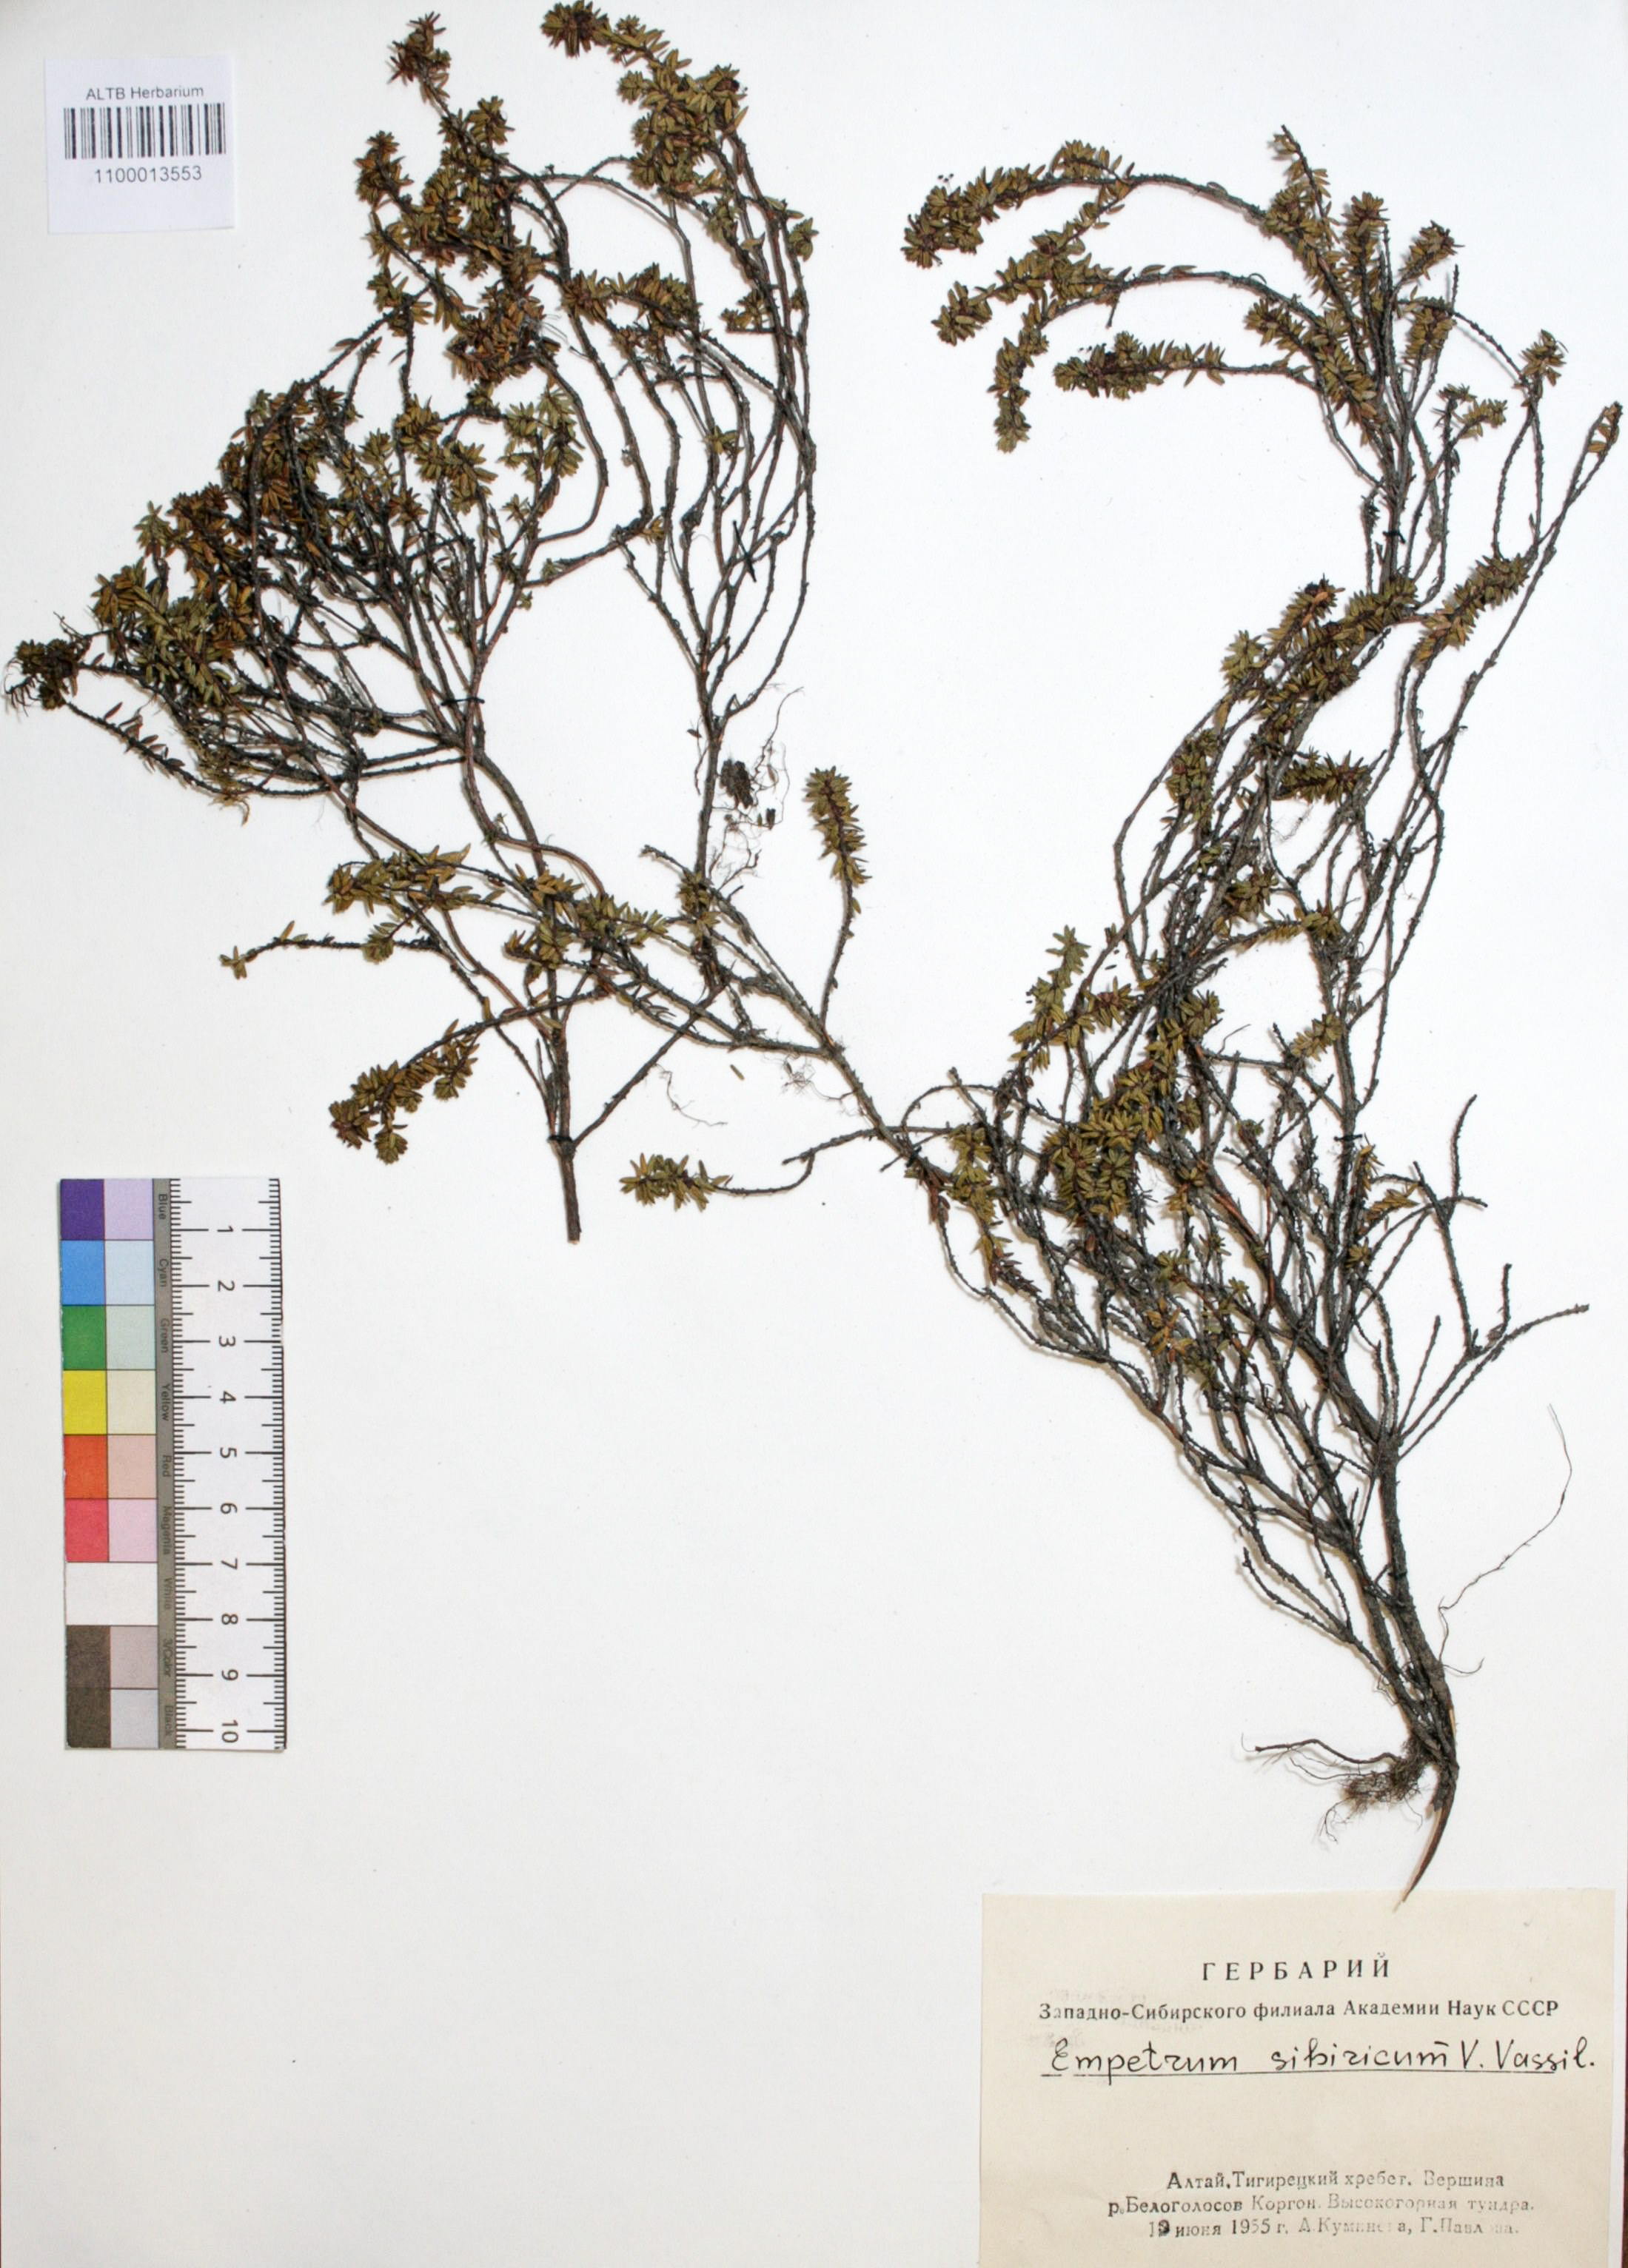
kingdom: Plantae
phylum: Tracheophyta
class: Magnoliopsida
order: Ericales
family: Ericaceae
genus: Empetrum
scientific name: Empetrum nigrum
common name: Black crowberry
